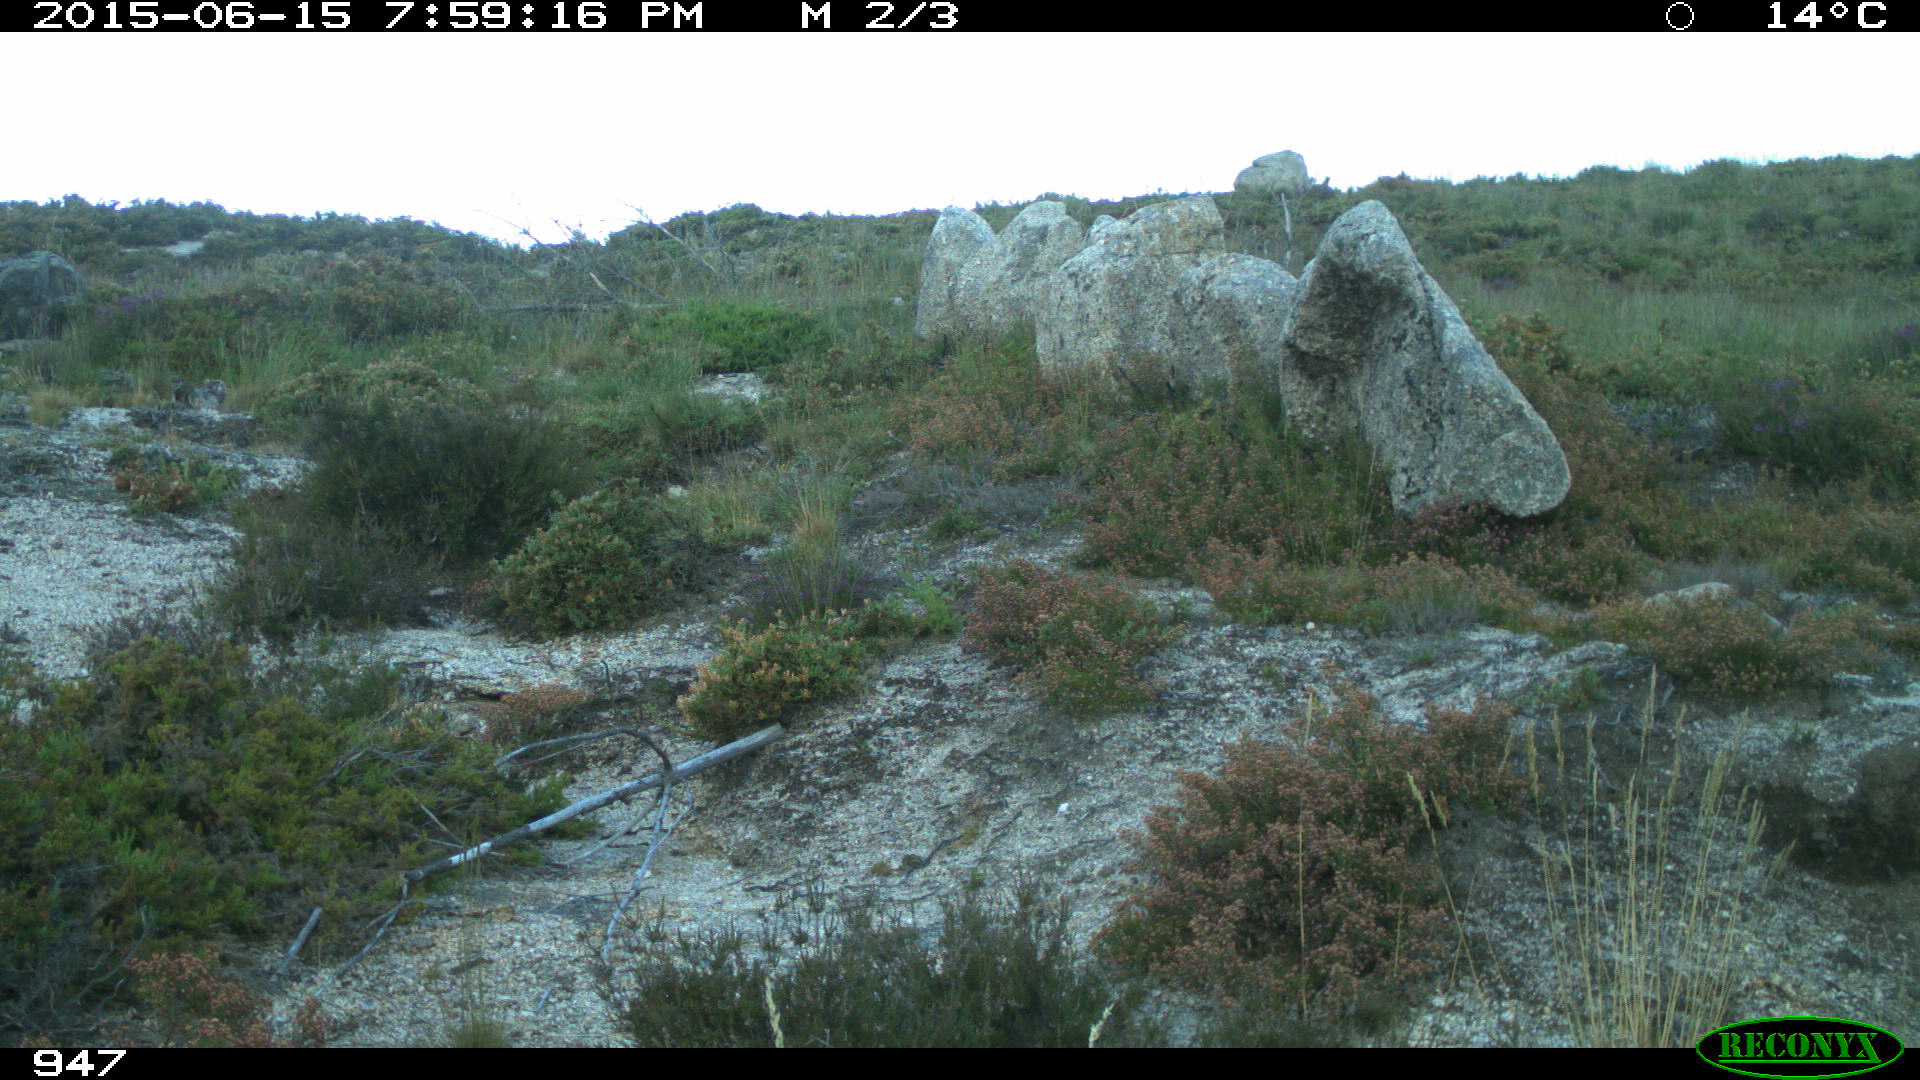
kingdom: Animalia
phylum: Chordata
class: Mammalia
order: Perissodactyla
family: Equidae
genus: Equus
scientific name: Equus caballus
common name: Horse
